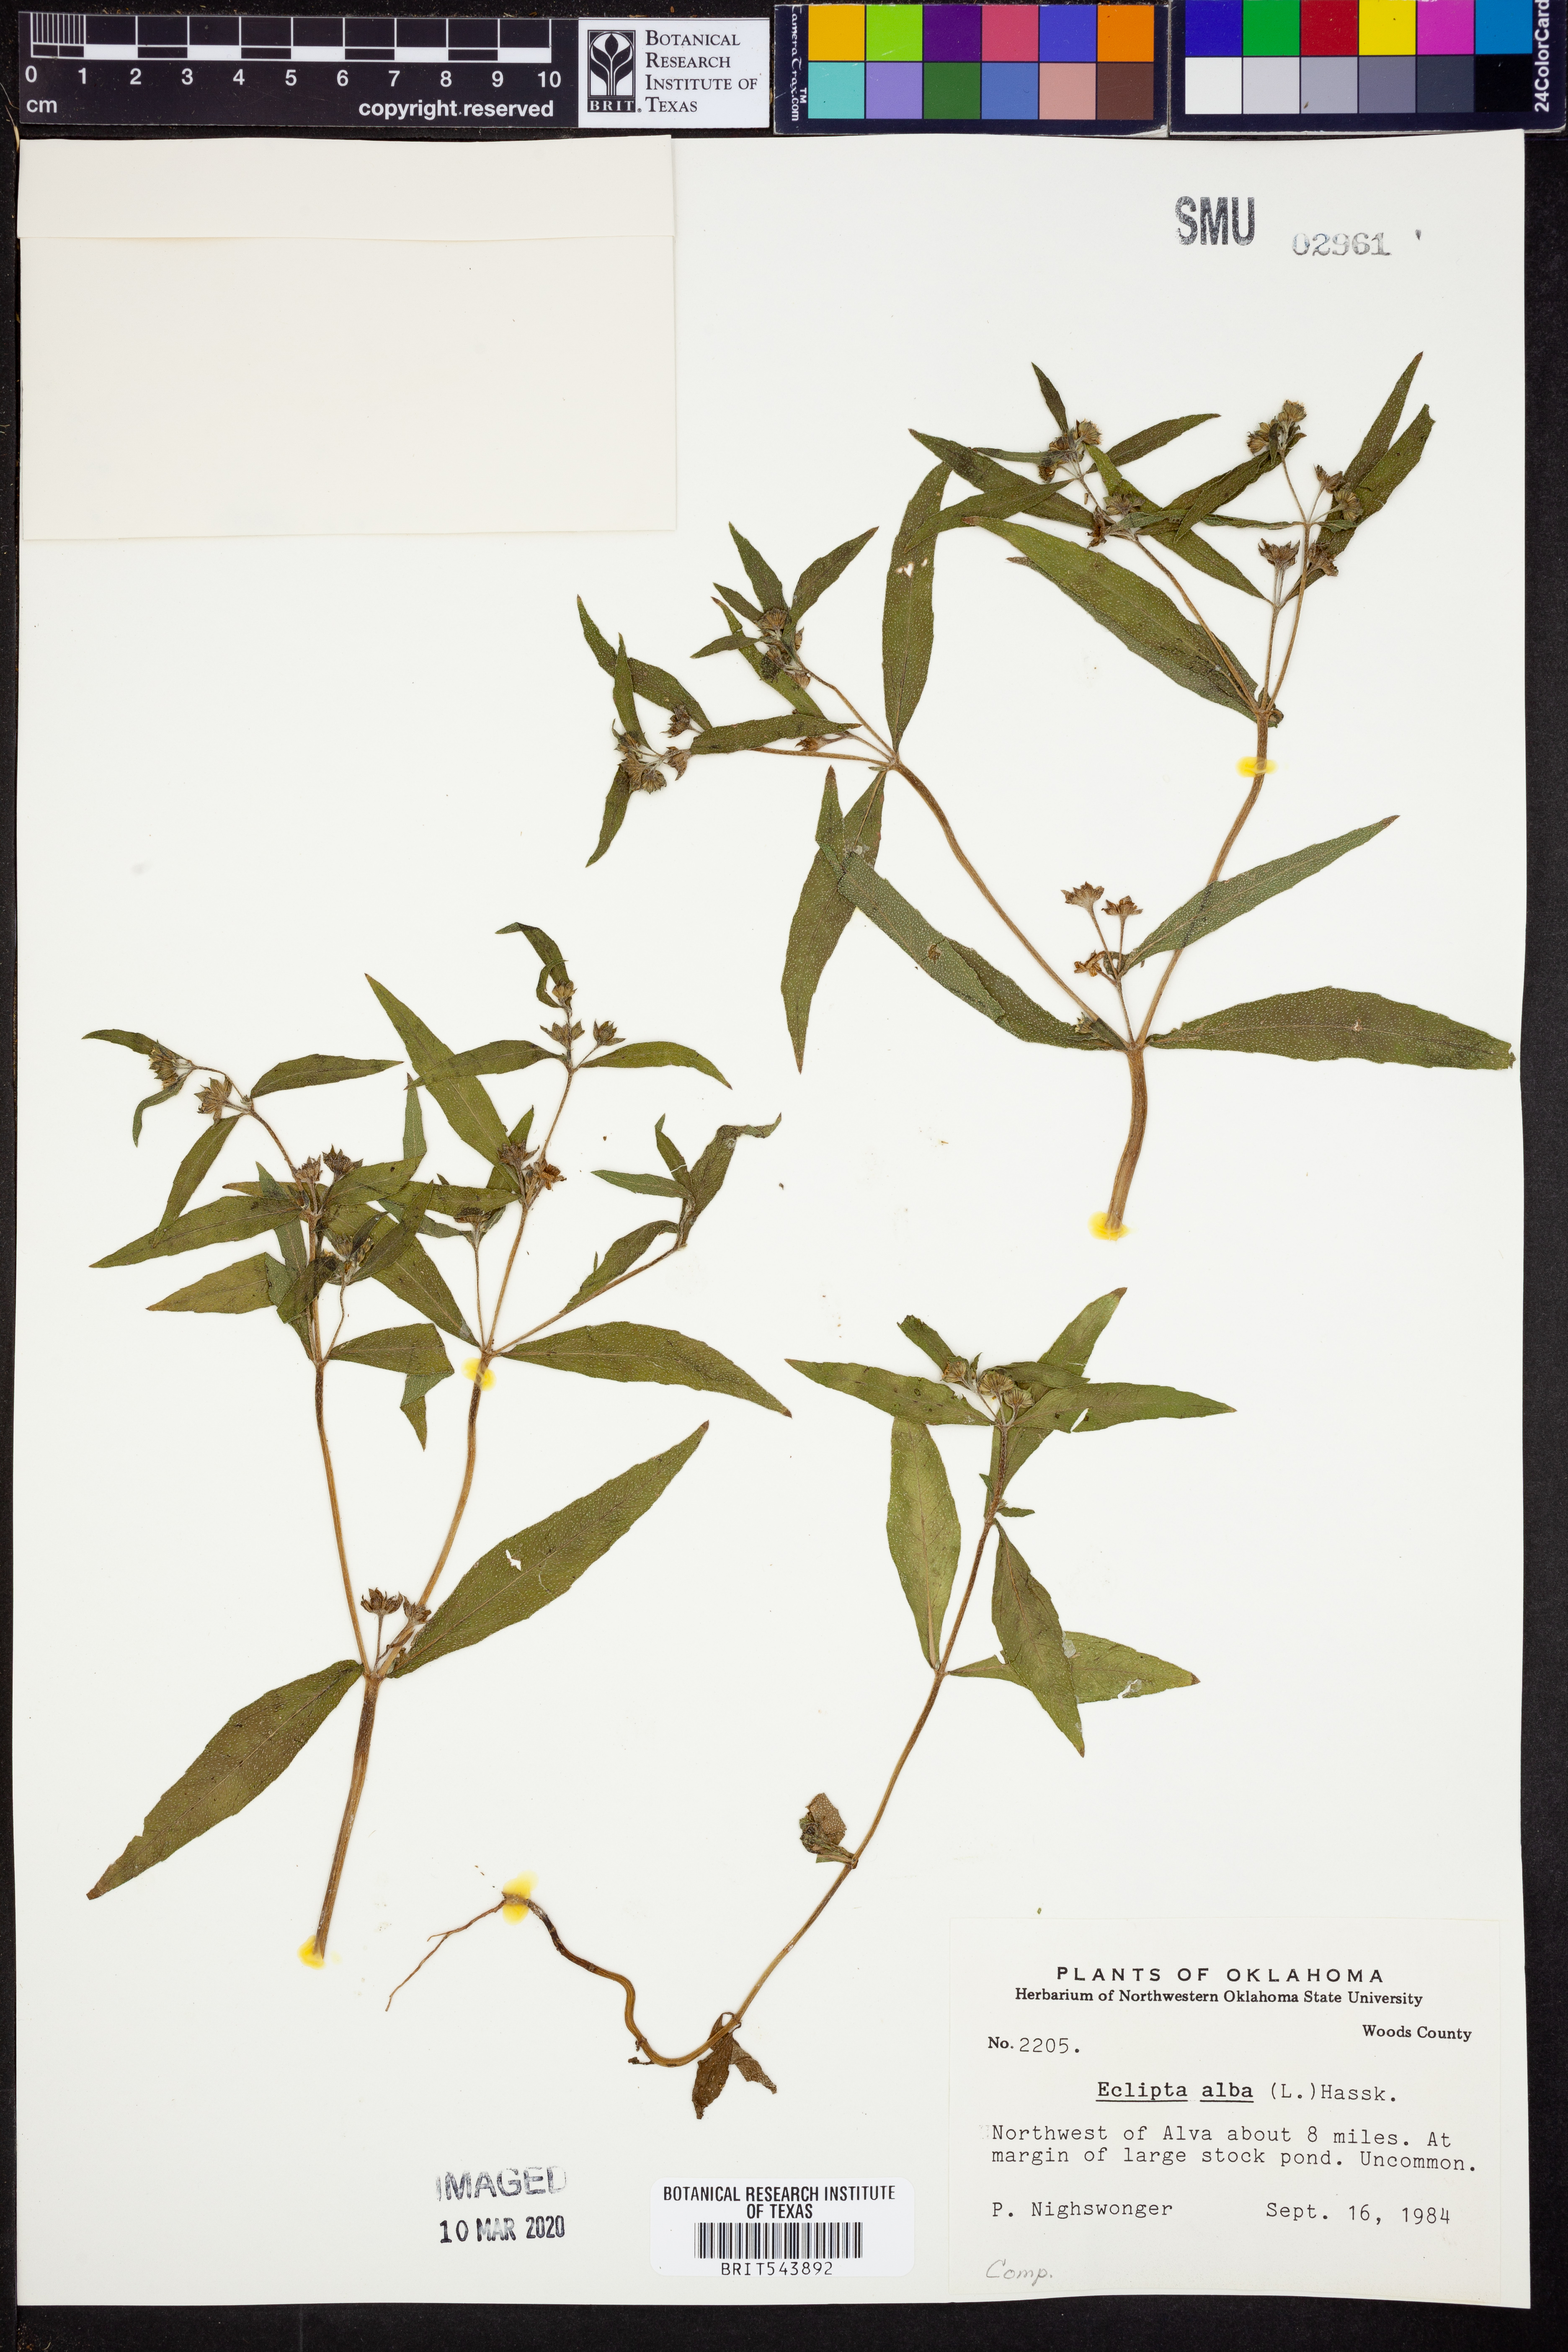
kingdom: Plantae
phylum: Tracheophyta
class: Magnoliopsida
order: Asterales
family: Asteraceae
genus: Eclipta
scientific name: Eclipta alba
